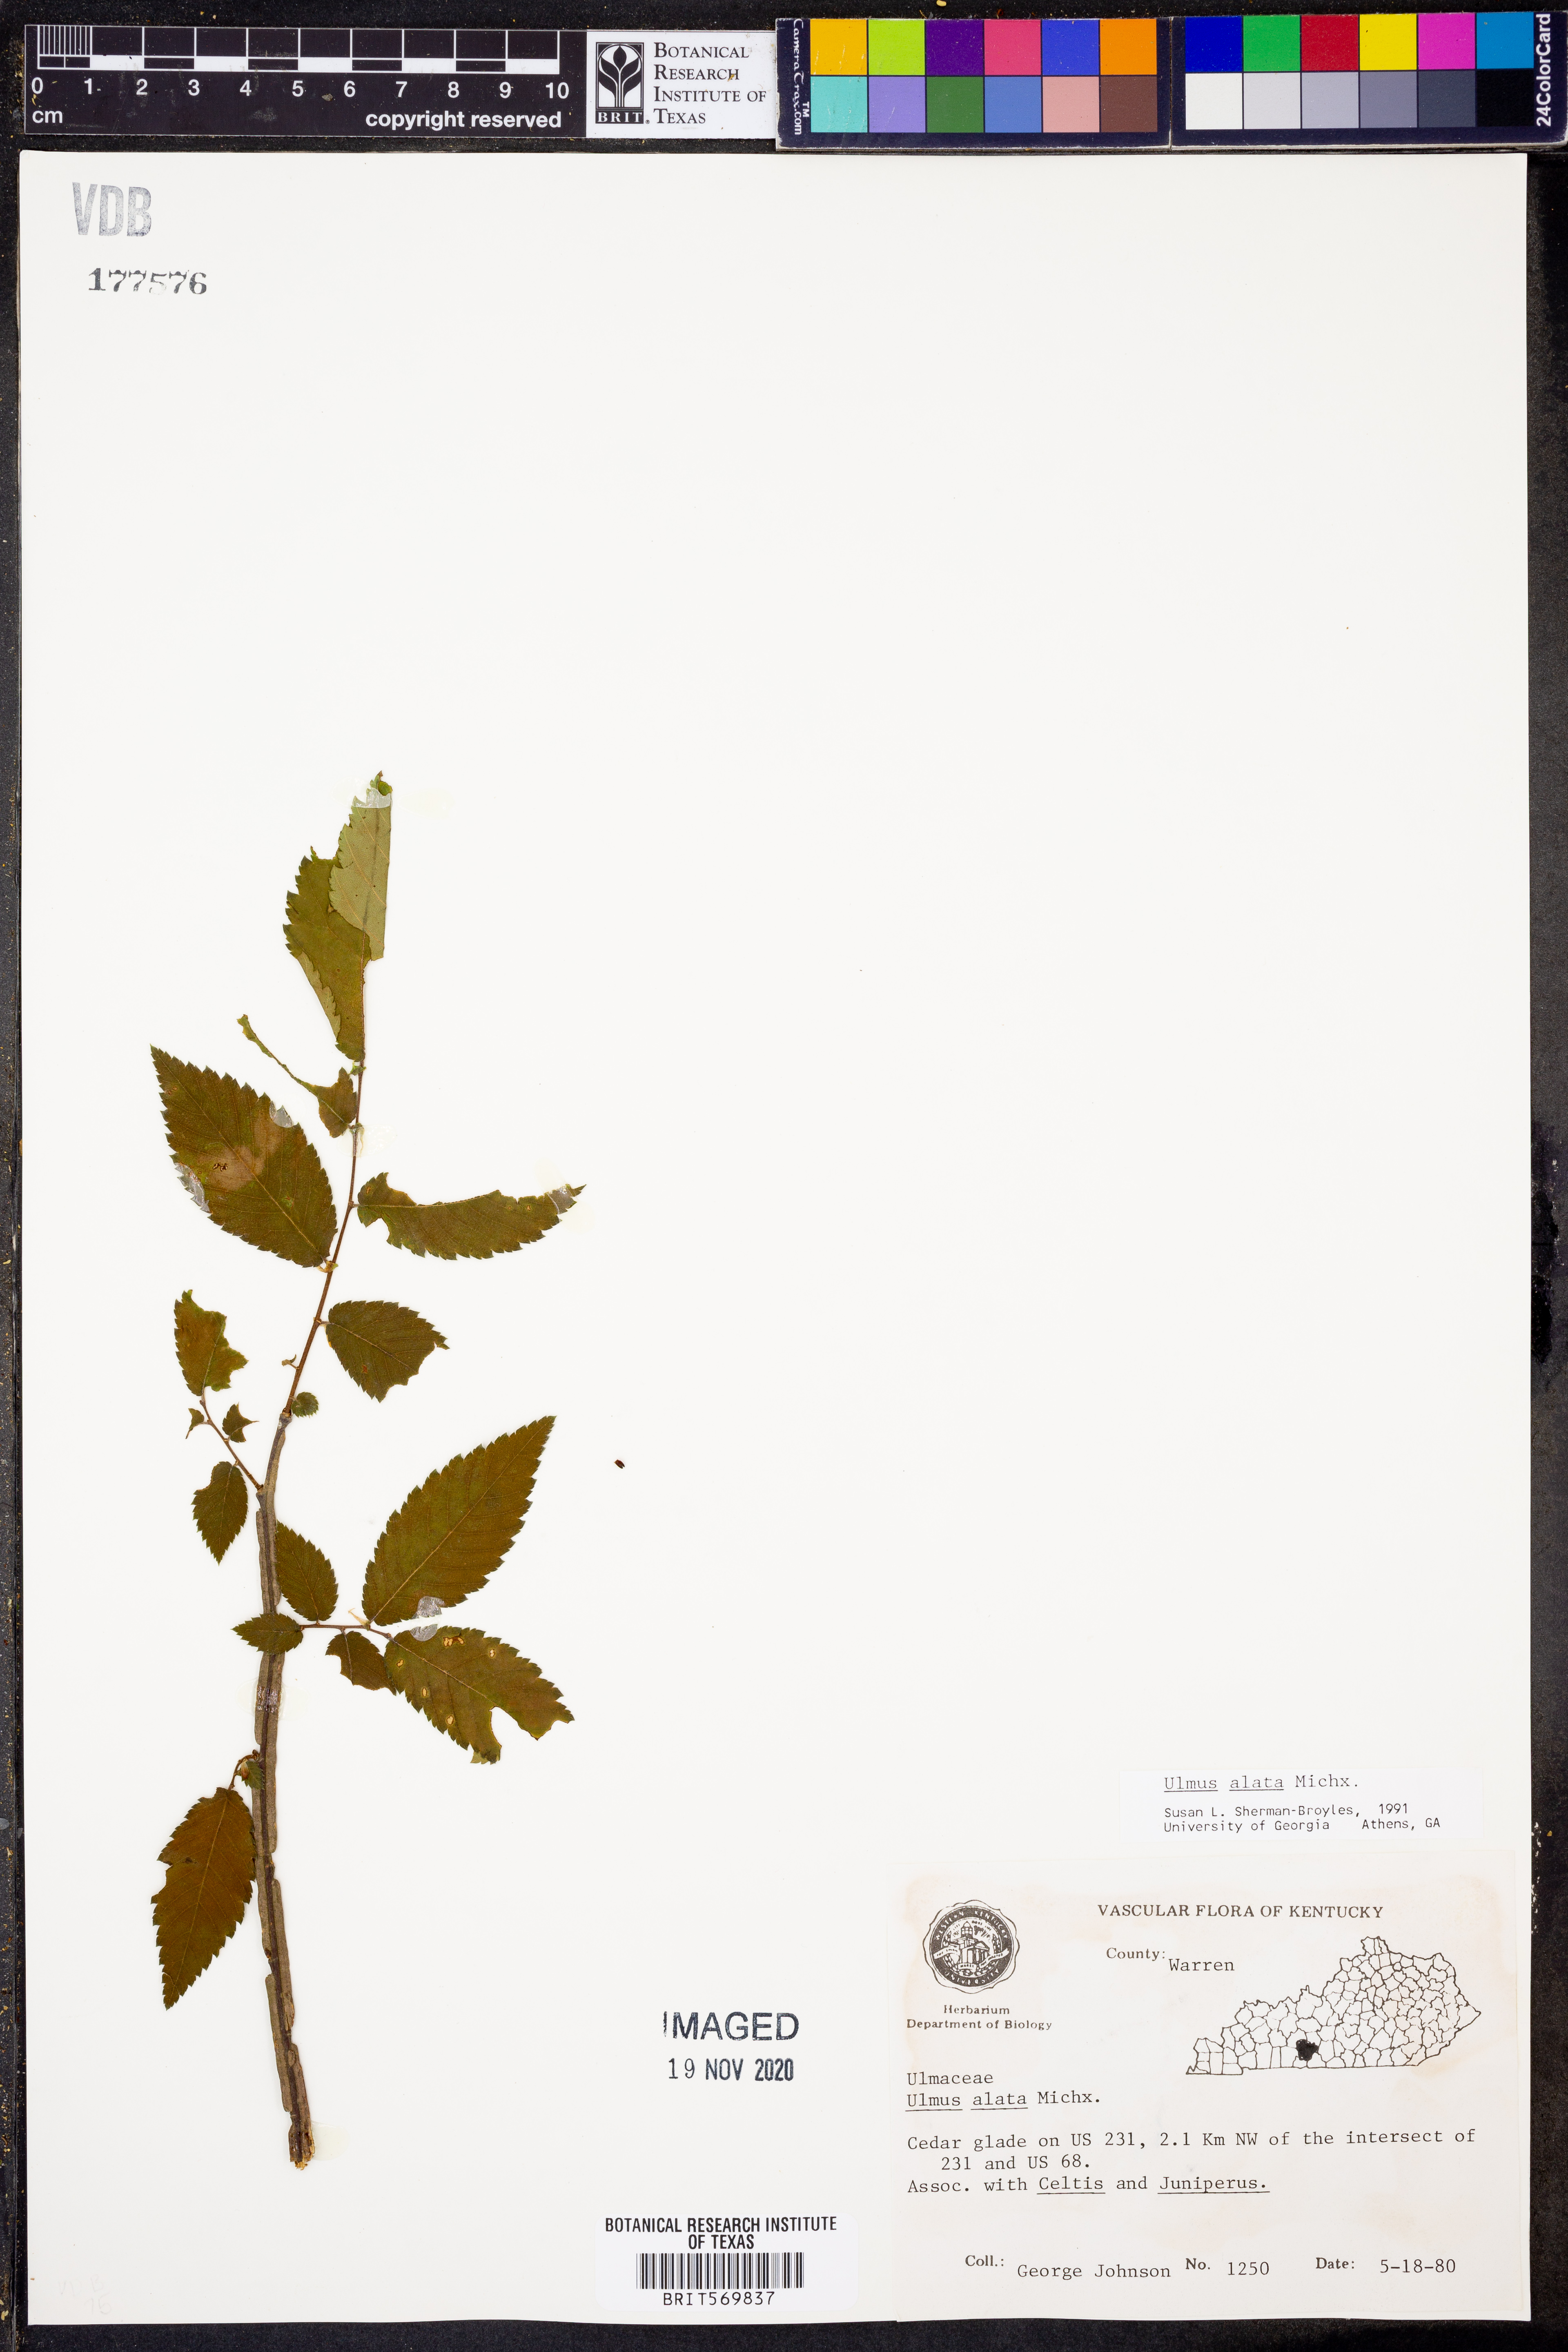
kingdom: Plantae
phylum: Tracheophyta
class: Magnoliopsida
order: Rosales
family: Ulmaceae
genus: Ulmus
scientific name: Ulmus alata
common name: Winged elm
